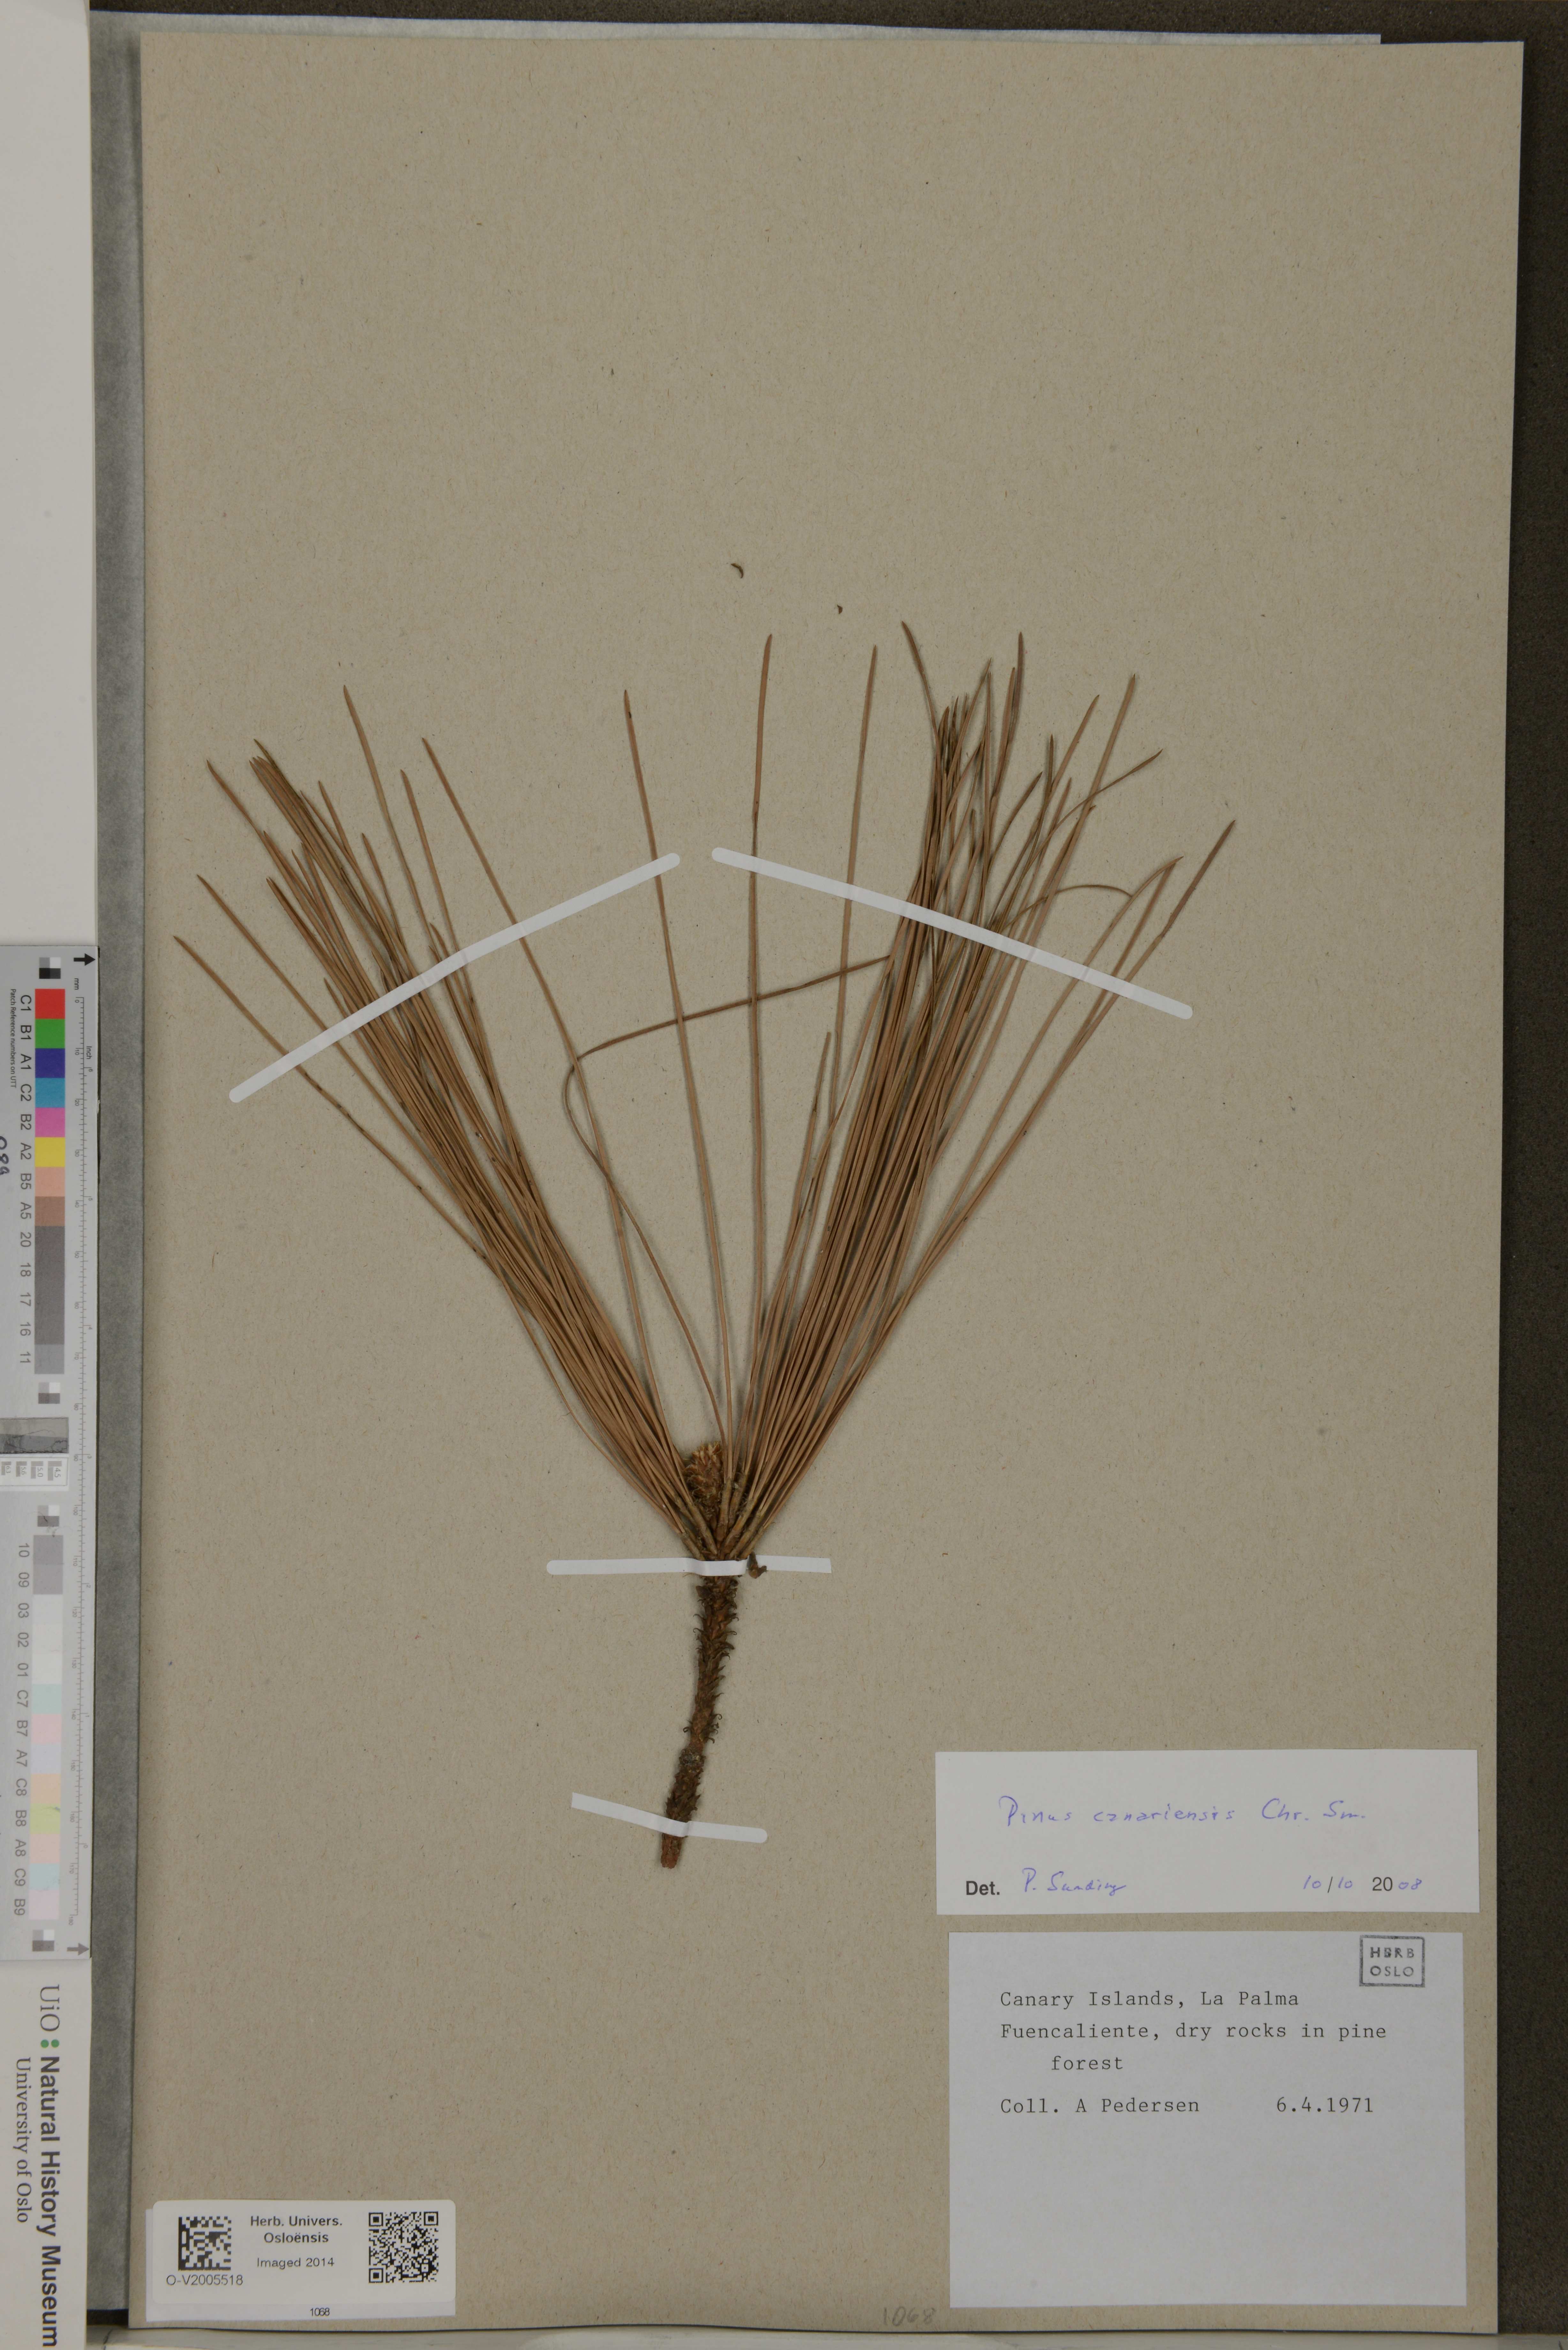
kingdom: Plantae
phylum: Tracheophyta
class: Pinopsida
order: Pinales
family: Pinaceae
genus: Pinus
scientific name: Pinus canariensis
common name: Canary islands pine
